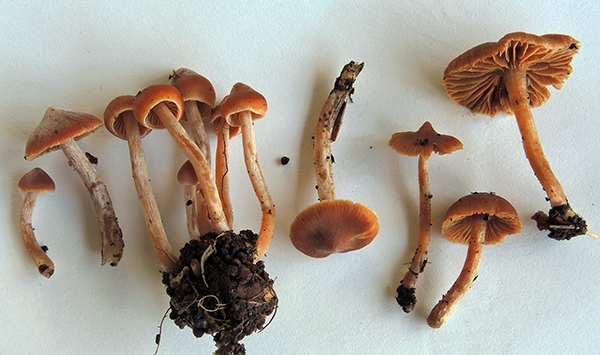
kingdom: Fungi
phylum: Basidiomycota
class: Agaricomycetes
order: Agaricales
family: Cortinariaceae
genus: Cortinarius
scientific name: Cortinarius
